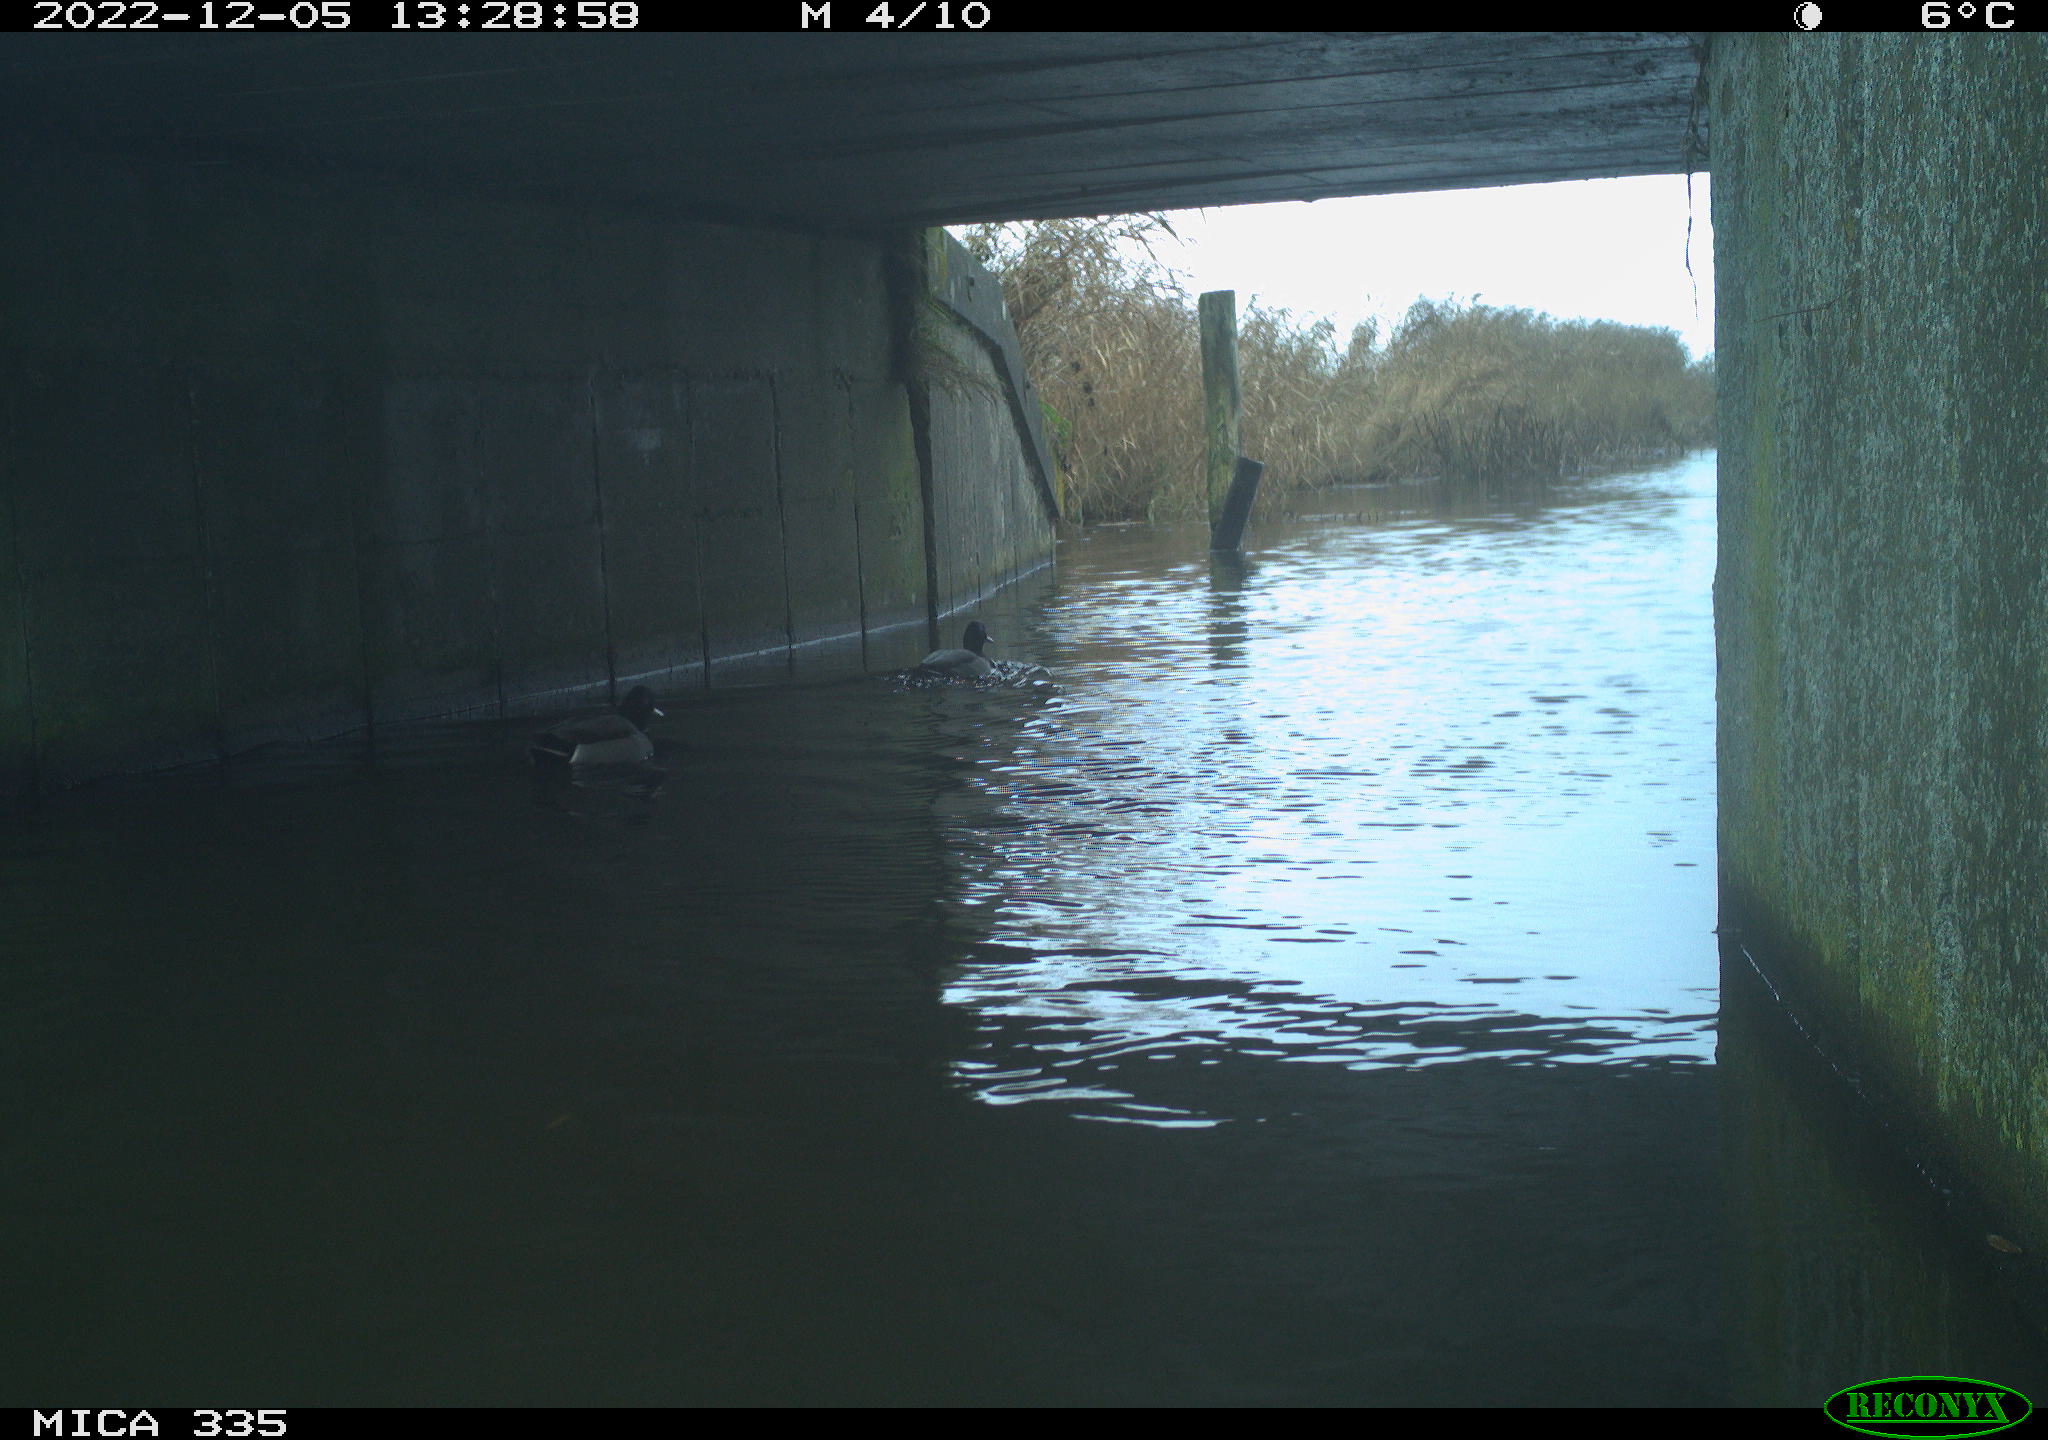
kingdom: Animalia
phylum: Chordata
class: Aves
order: Anseriformes
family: Anatidae
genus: Anas
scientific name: Anas
